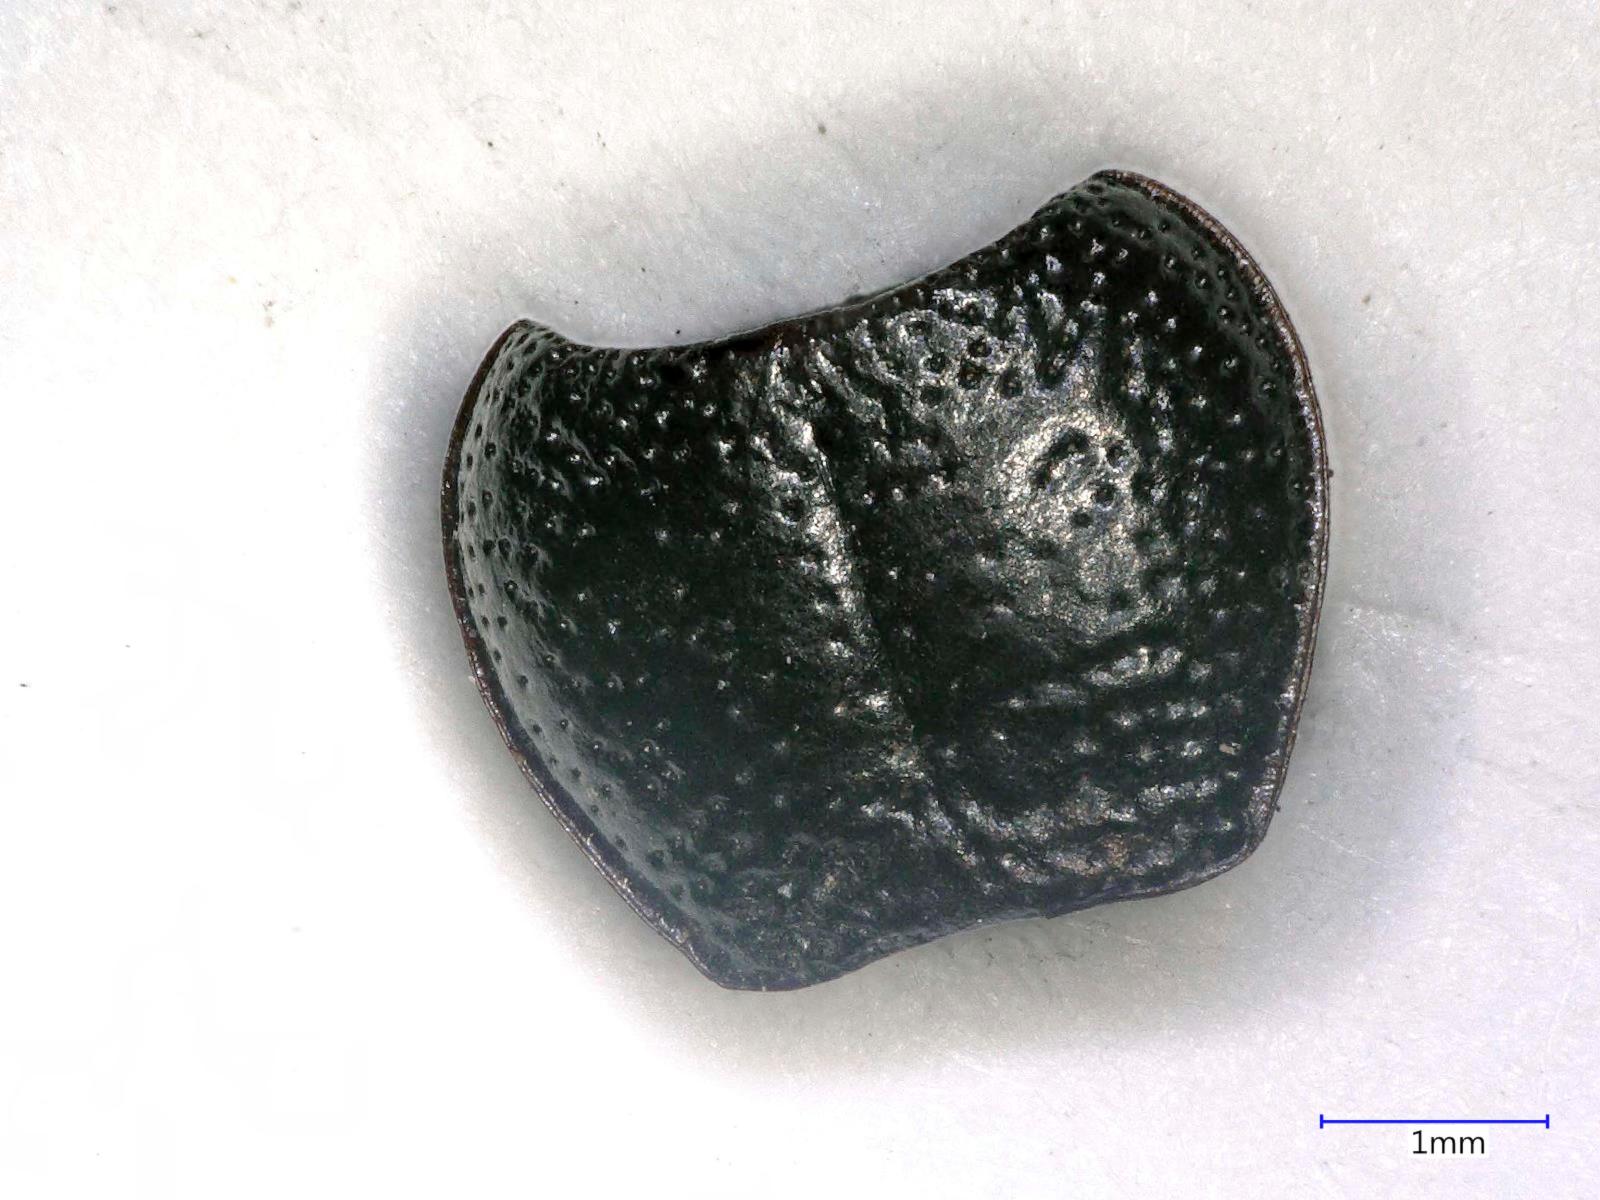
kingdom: Animalia
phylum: Arthropoda
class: Insecta
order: Coleoptera
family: Carabidae
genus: Dicheirus
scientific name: Dicheirus dilatatus
